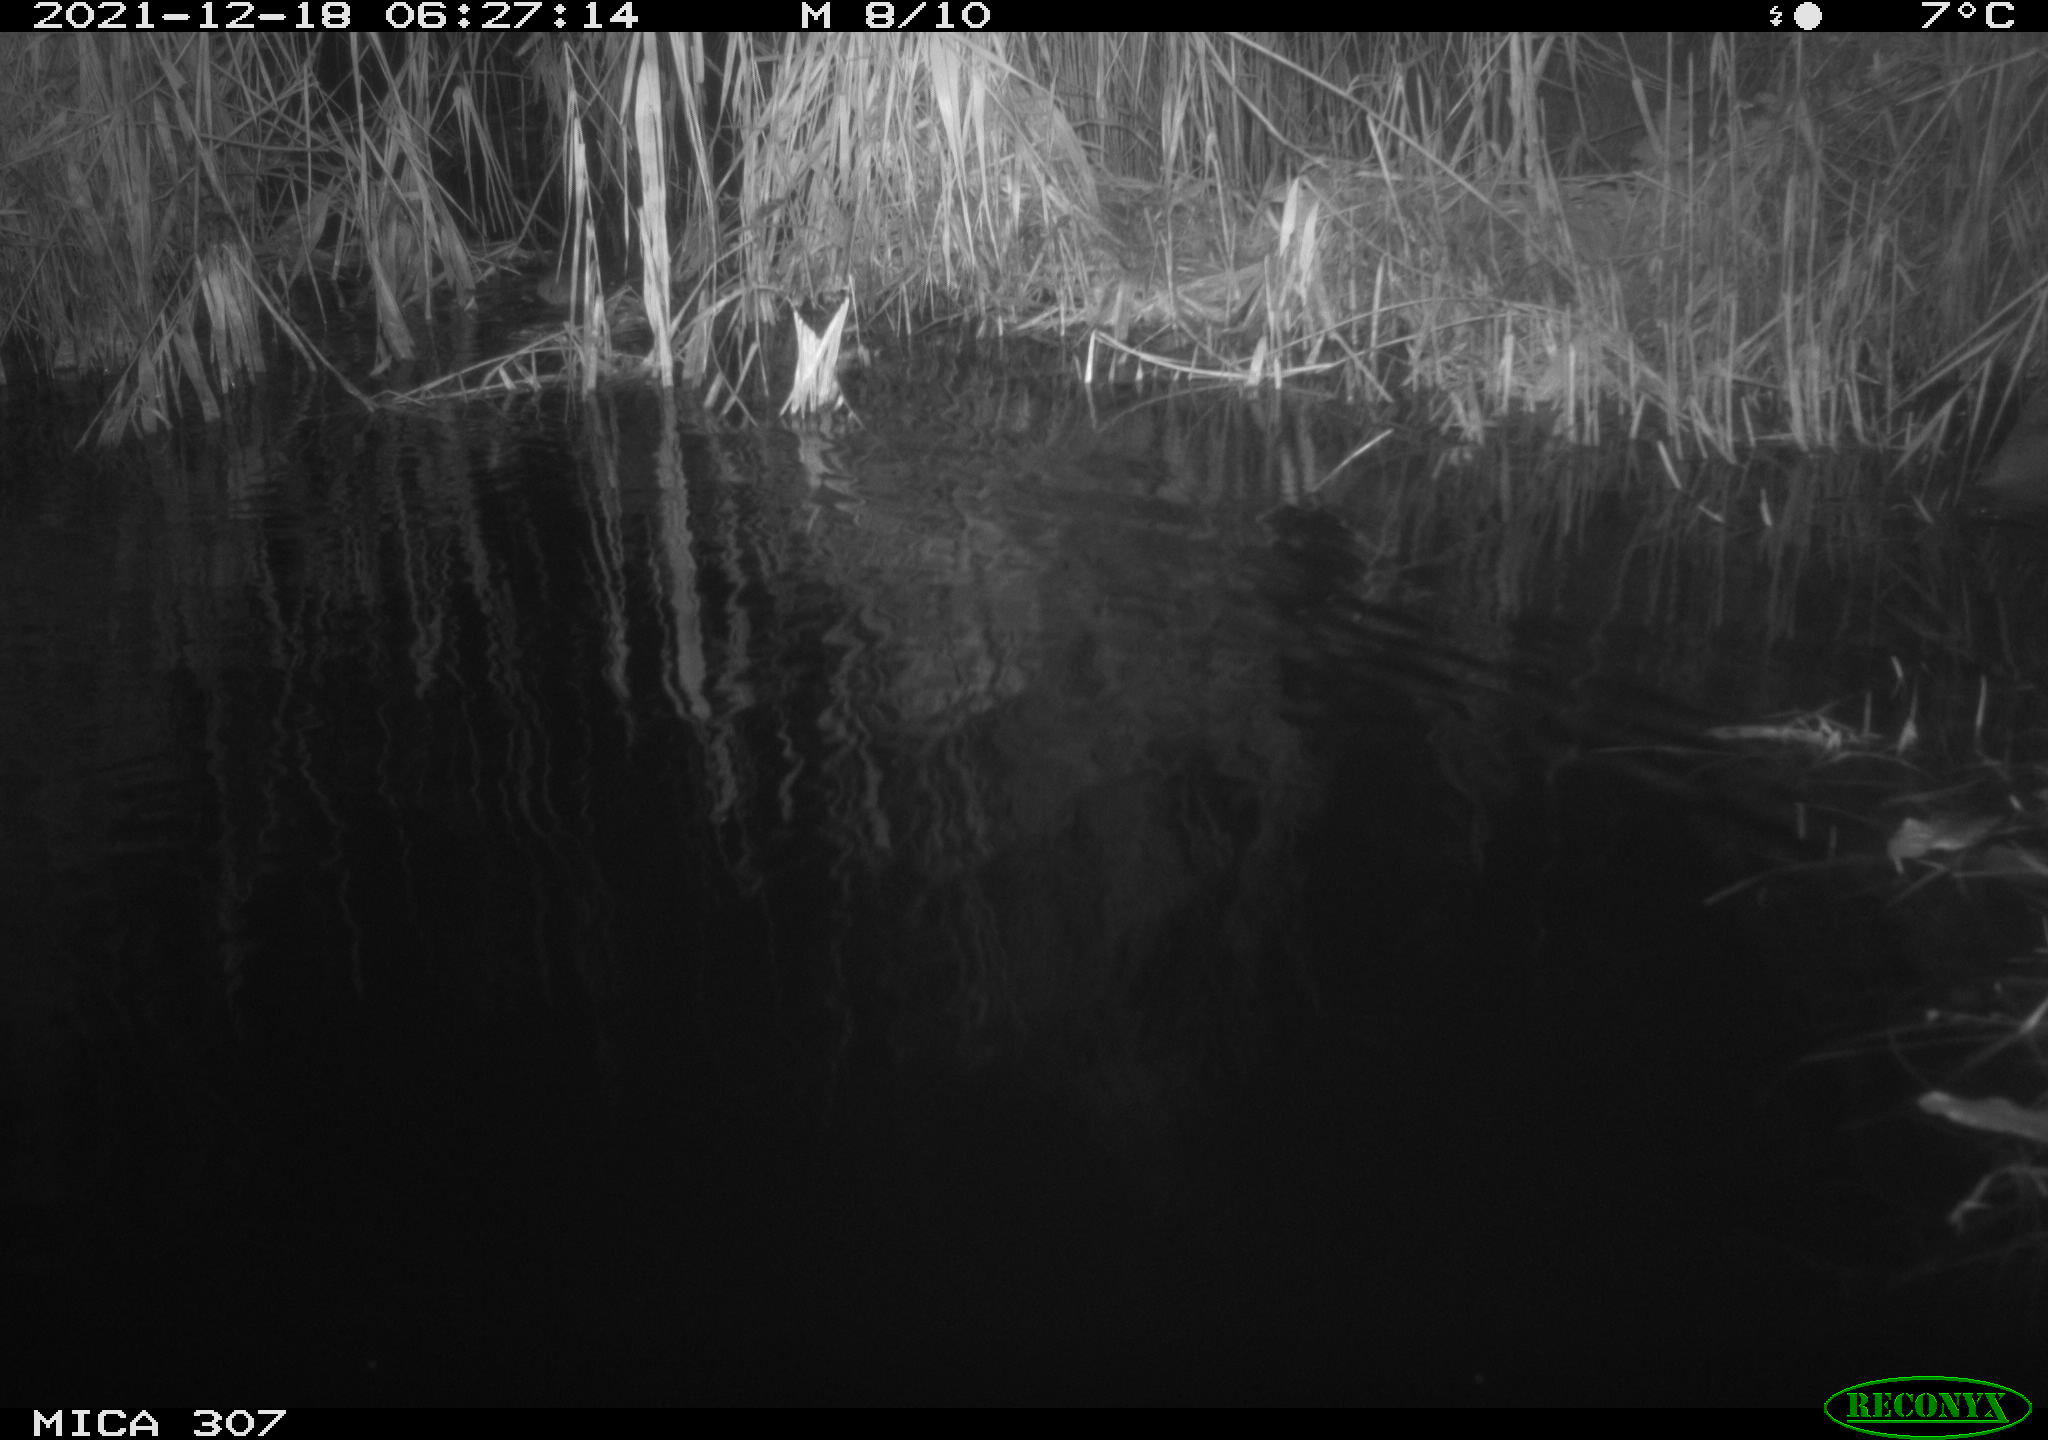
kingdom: Animalia
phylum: Chordata
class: Mammalia
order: Rodentia
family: Muridae
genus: Rattus
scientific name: Rattus norvegicus
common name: Brown rat
